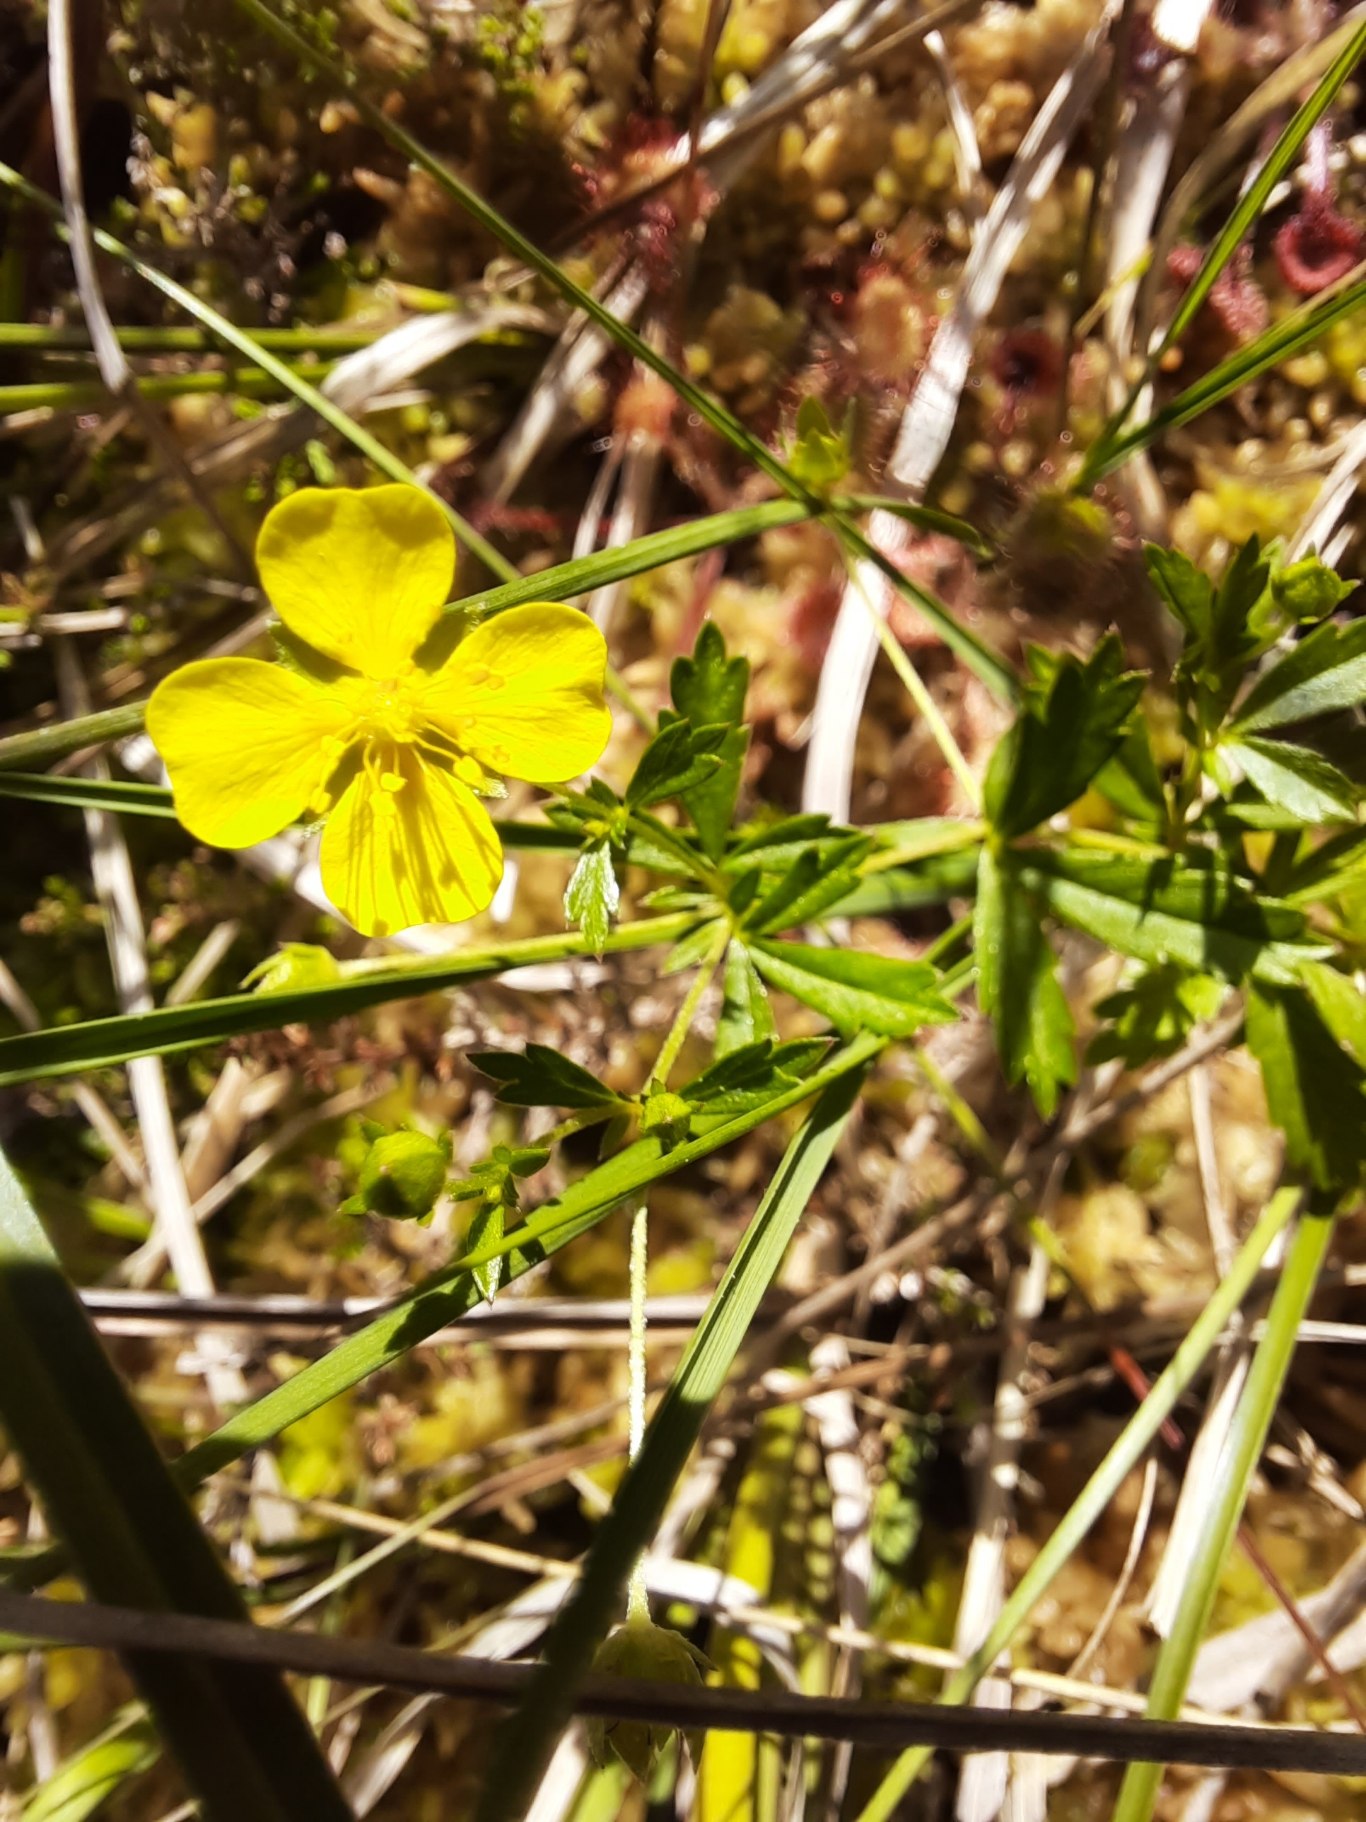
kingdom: Plantae
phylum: Tracheophyta
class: Magnoliopsida
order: Rosales
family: Rosaceae
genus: Potentilla
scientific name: Potentilla erecta
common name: Tormentil
